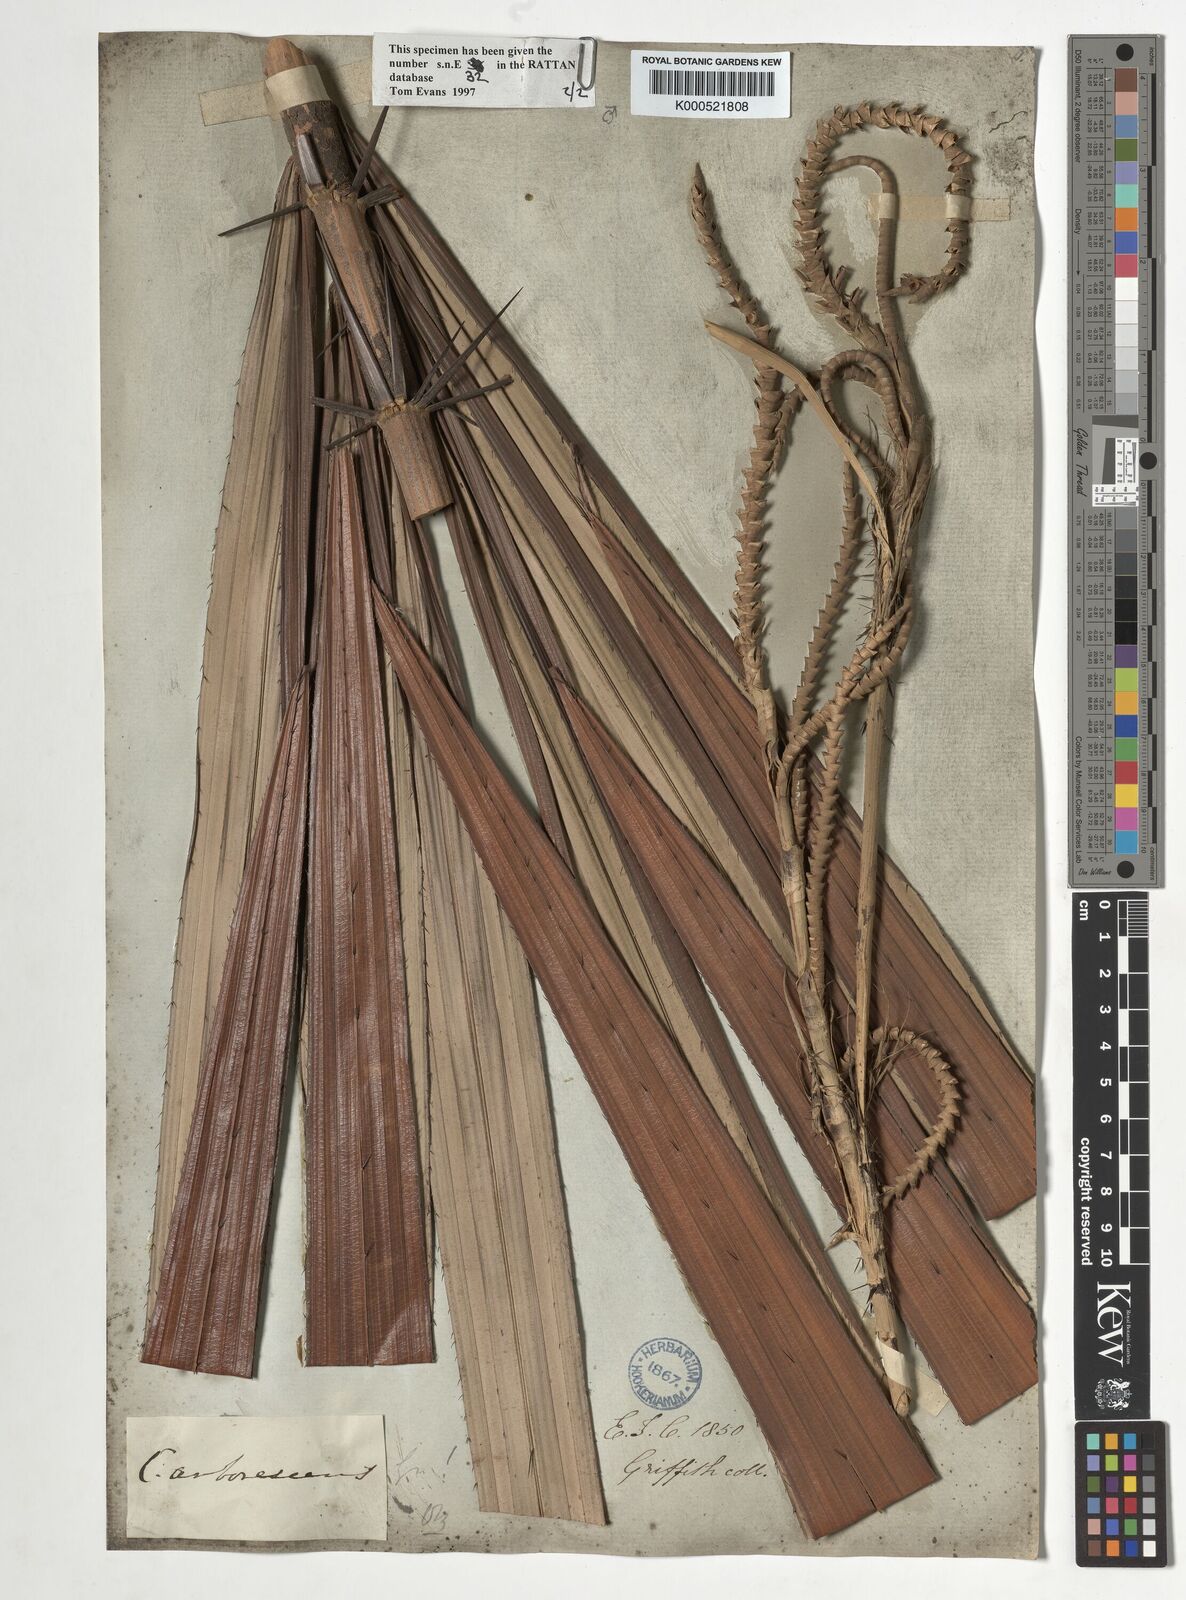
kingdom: Plantae
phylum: Tracheophyta
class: Liliopsida
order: Arecales
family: Arecaceae
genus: Calamus
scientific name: Calamus arborescens
